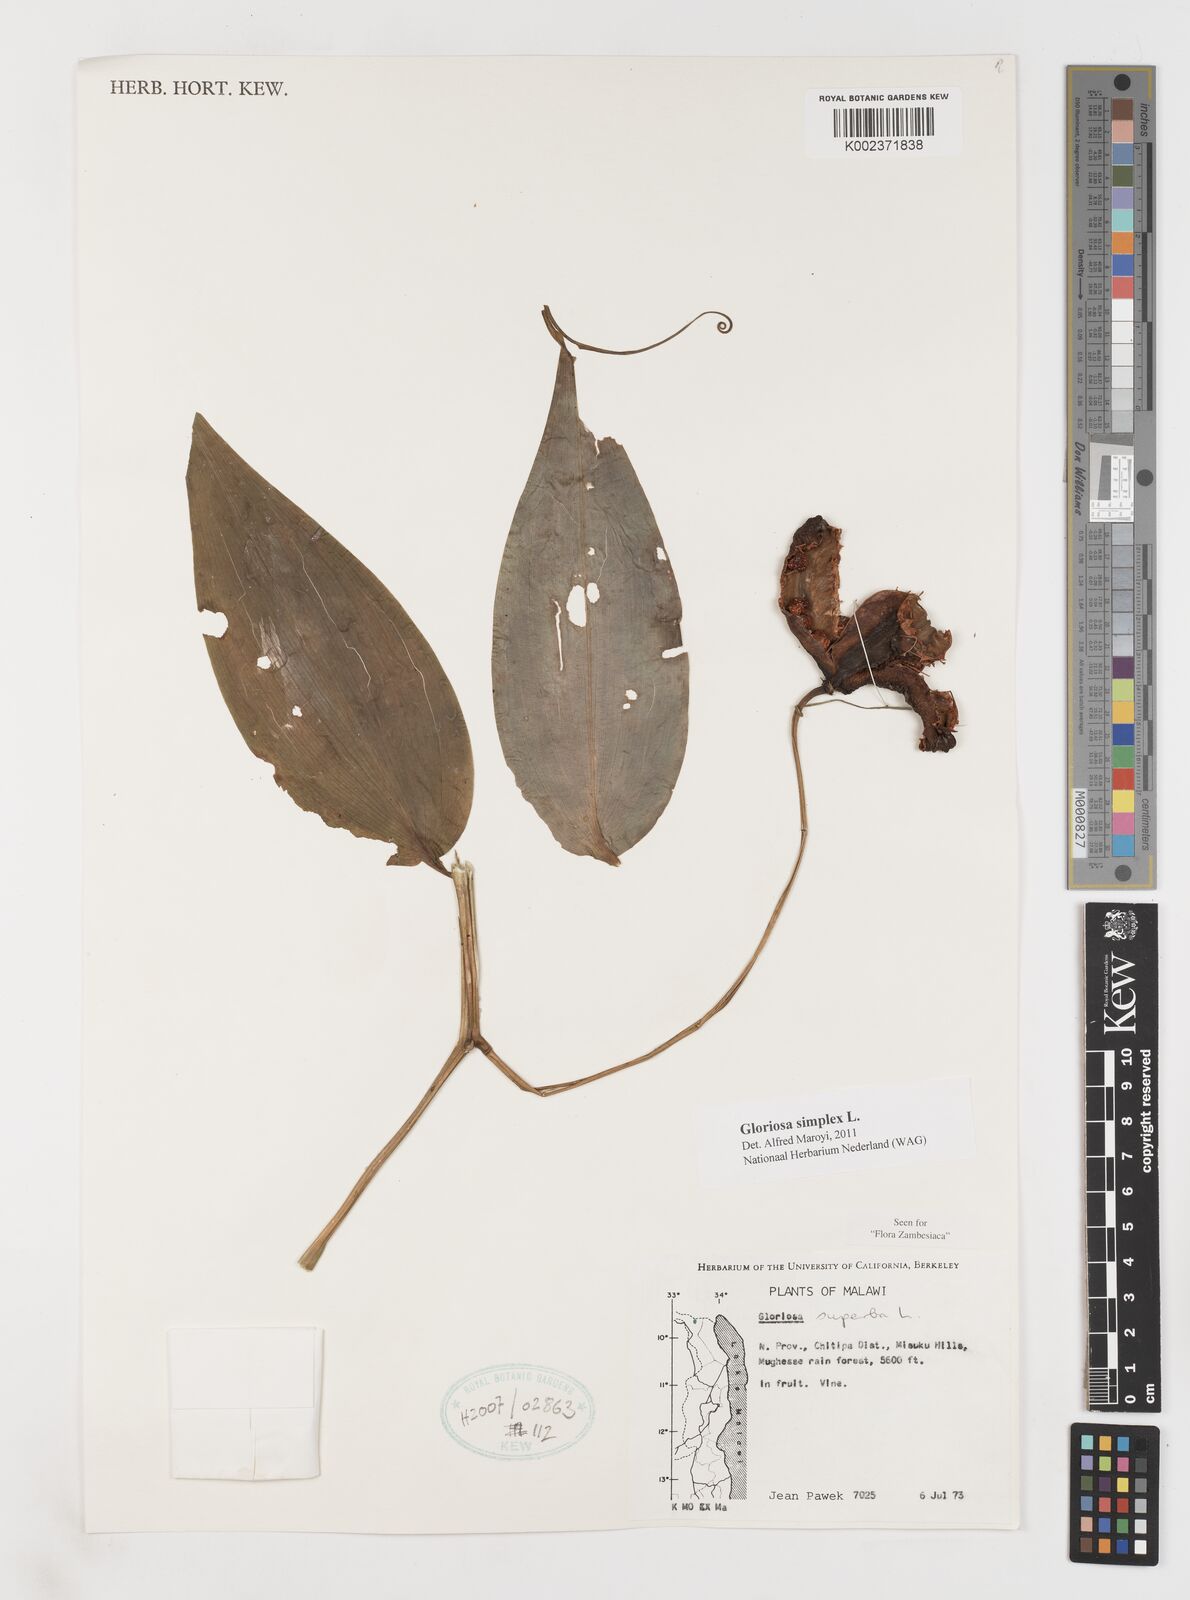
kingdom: Plantae
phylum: Tracheophyta
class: Liliopsida
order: Liliales
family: Colchicaceae
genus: Gloriosa
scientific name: Gloriosa simplex
